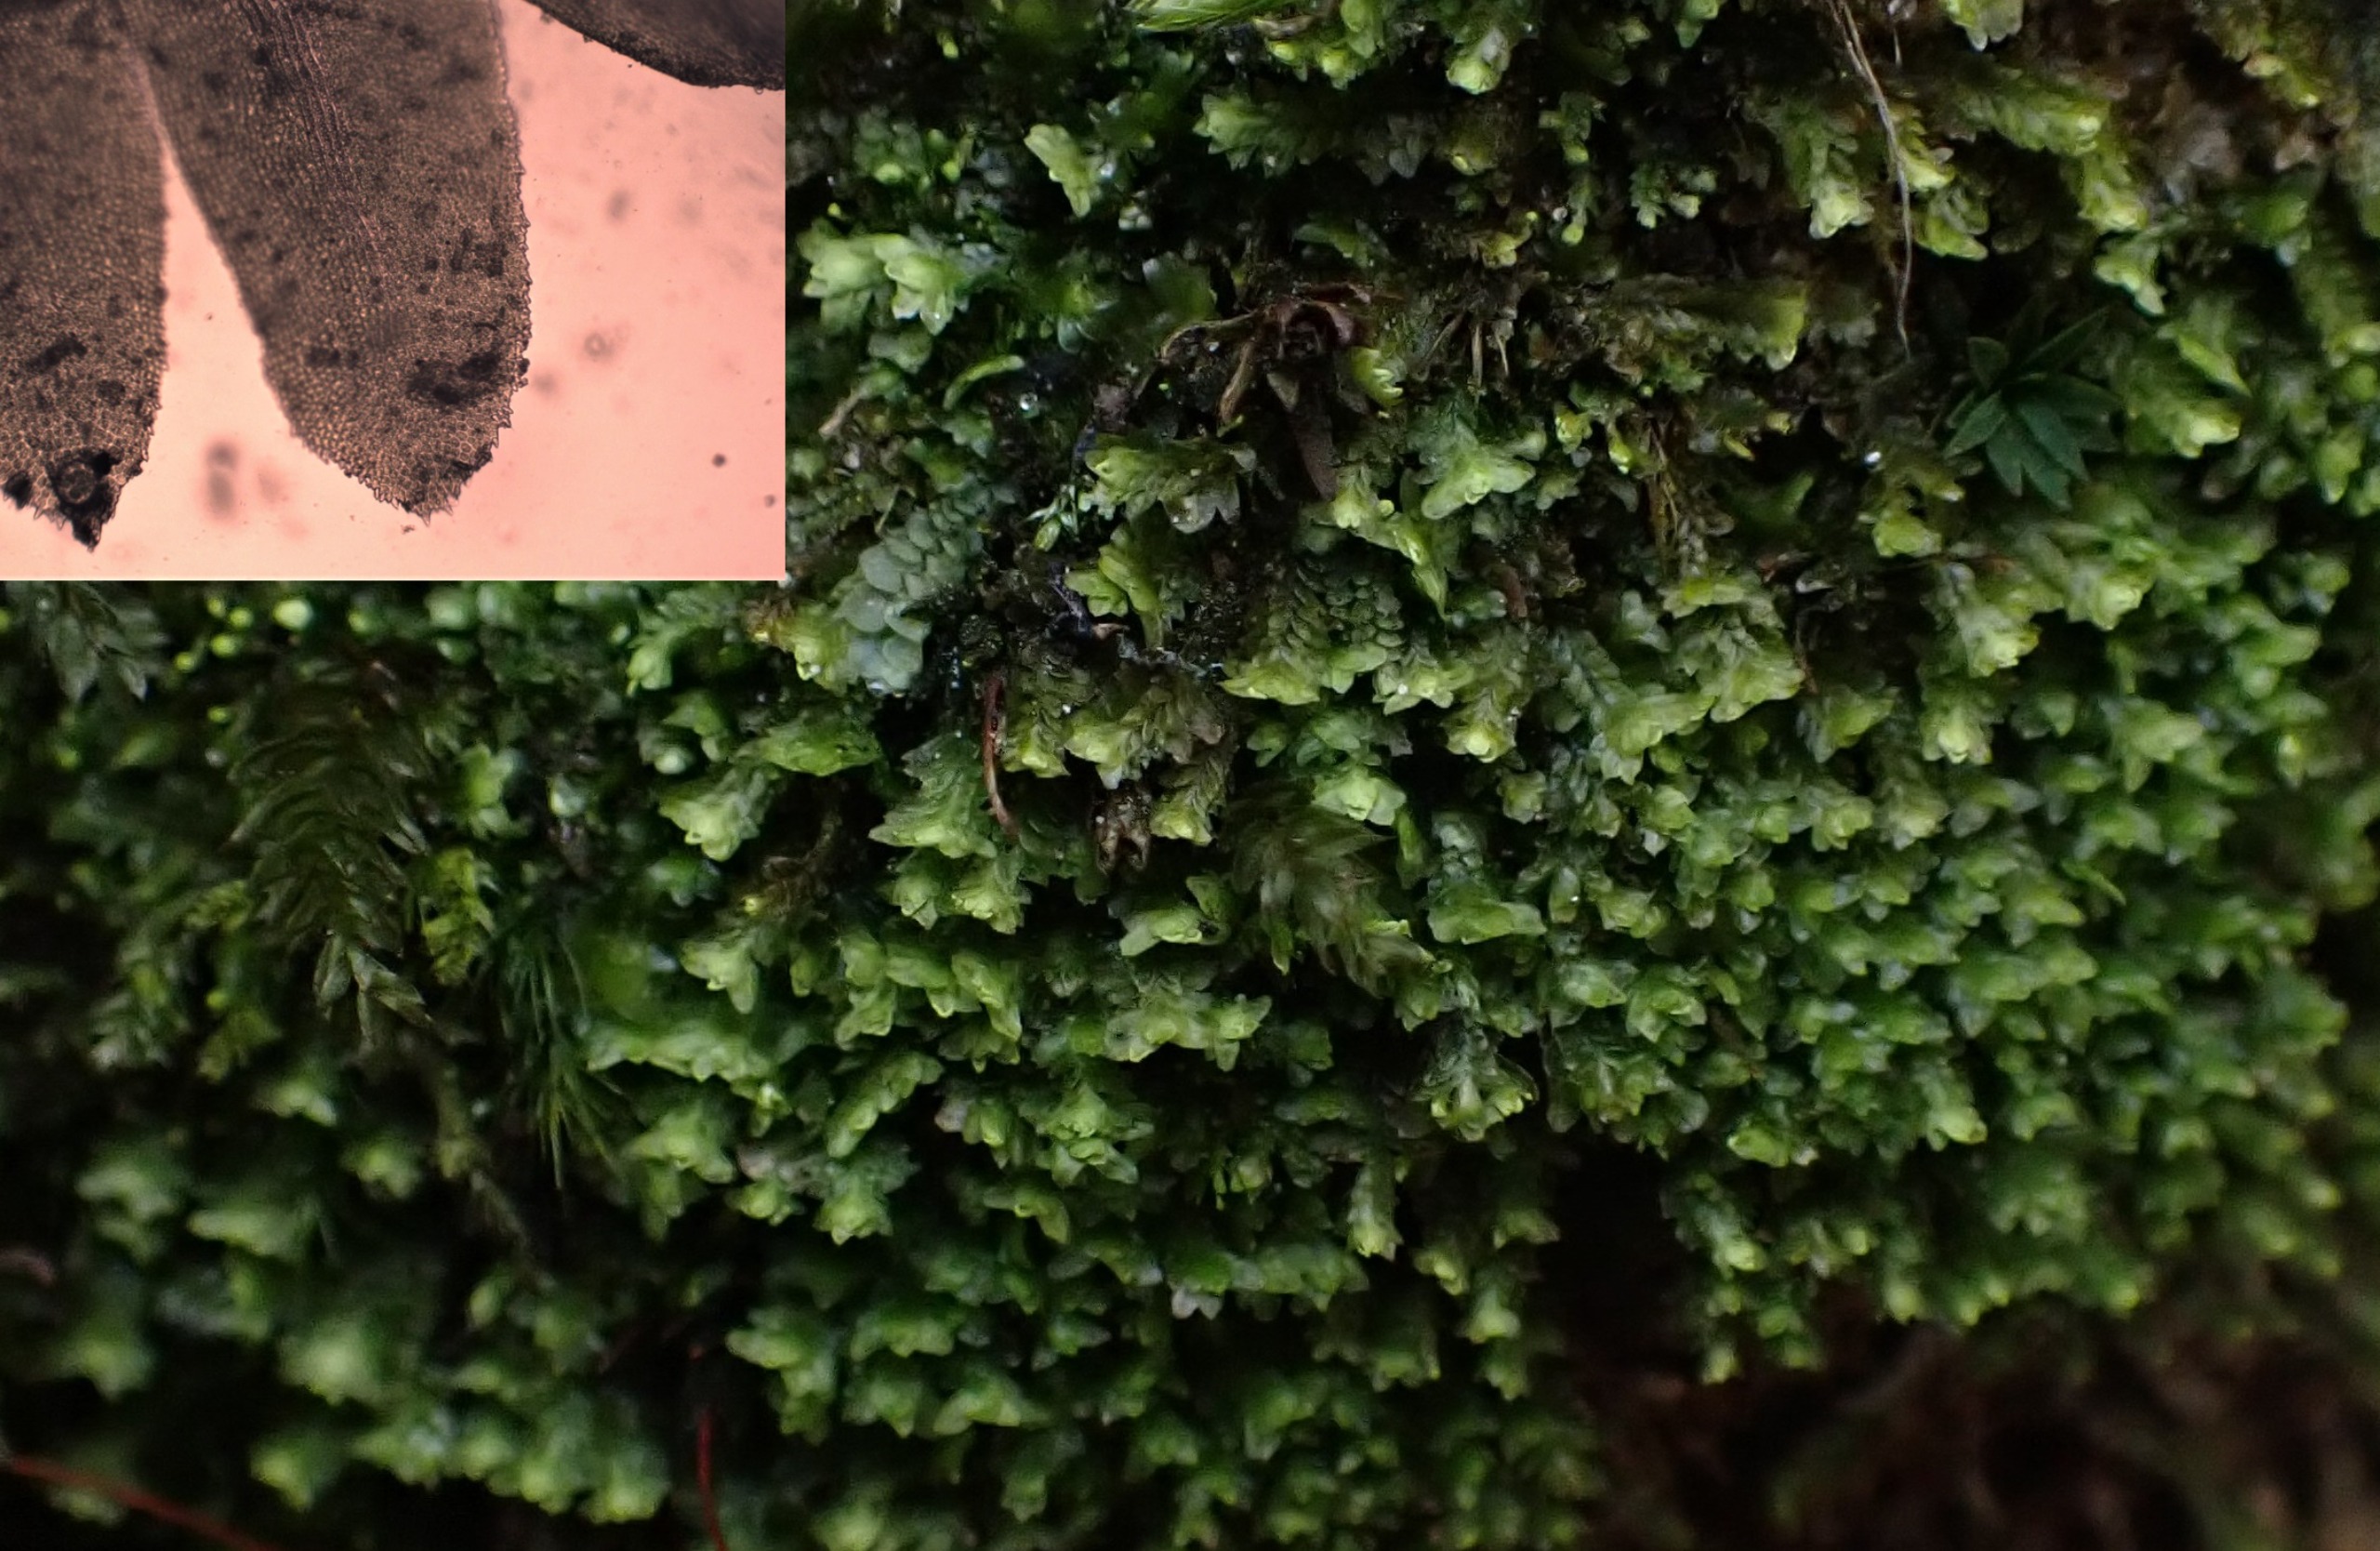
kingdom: Plantae
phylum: Marchantiophyta
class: Jungermanniopsida
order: Jungermanniales
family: Scapaniaceae
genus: Diplophyllum
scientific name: Diplophyllum albicans
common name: Stribet dobbeltblad
